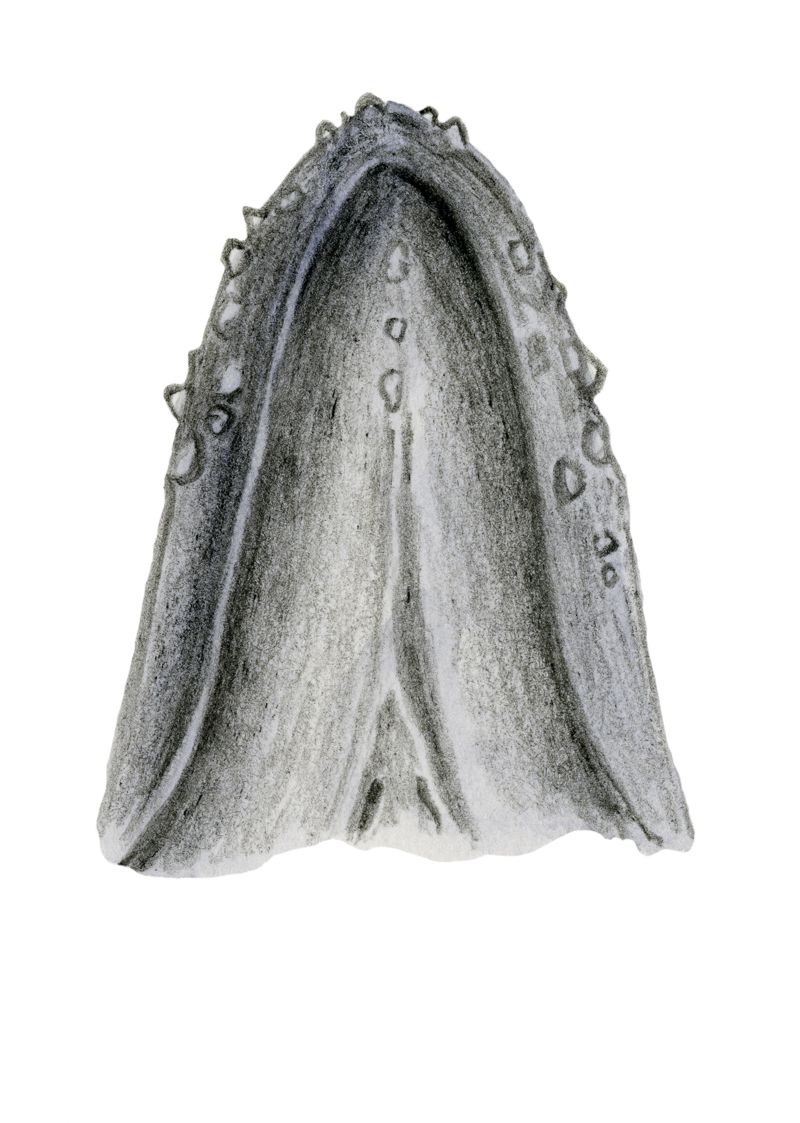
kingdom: Animalia
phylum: Chordata
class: Mammalia
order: Cetacea
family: Balaenopteridae
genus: Megaptera
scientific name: Megaptera novaeangliae
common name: Humpback whale
